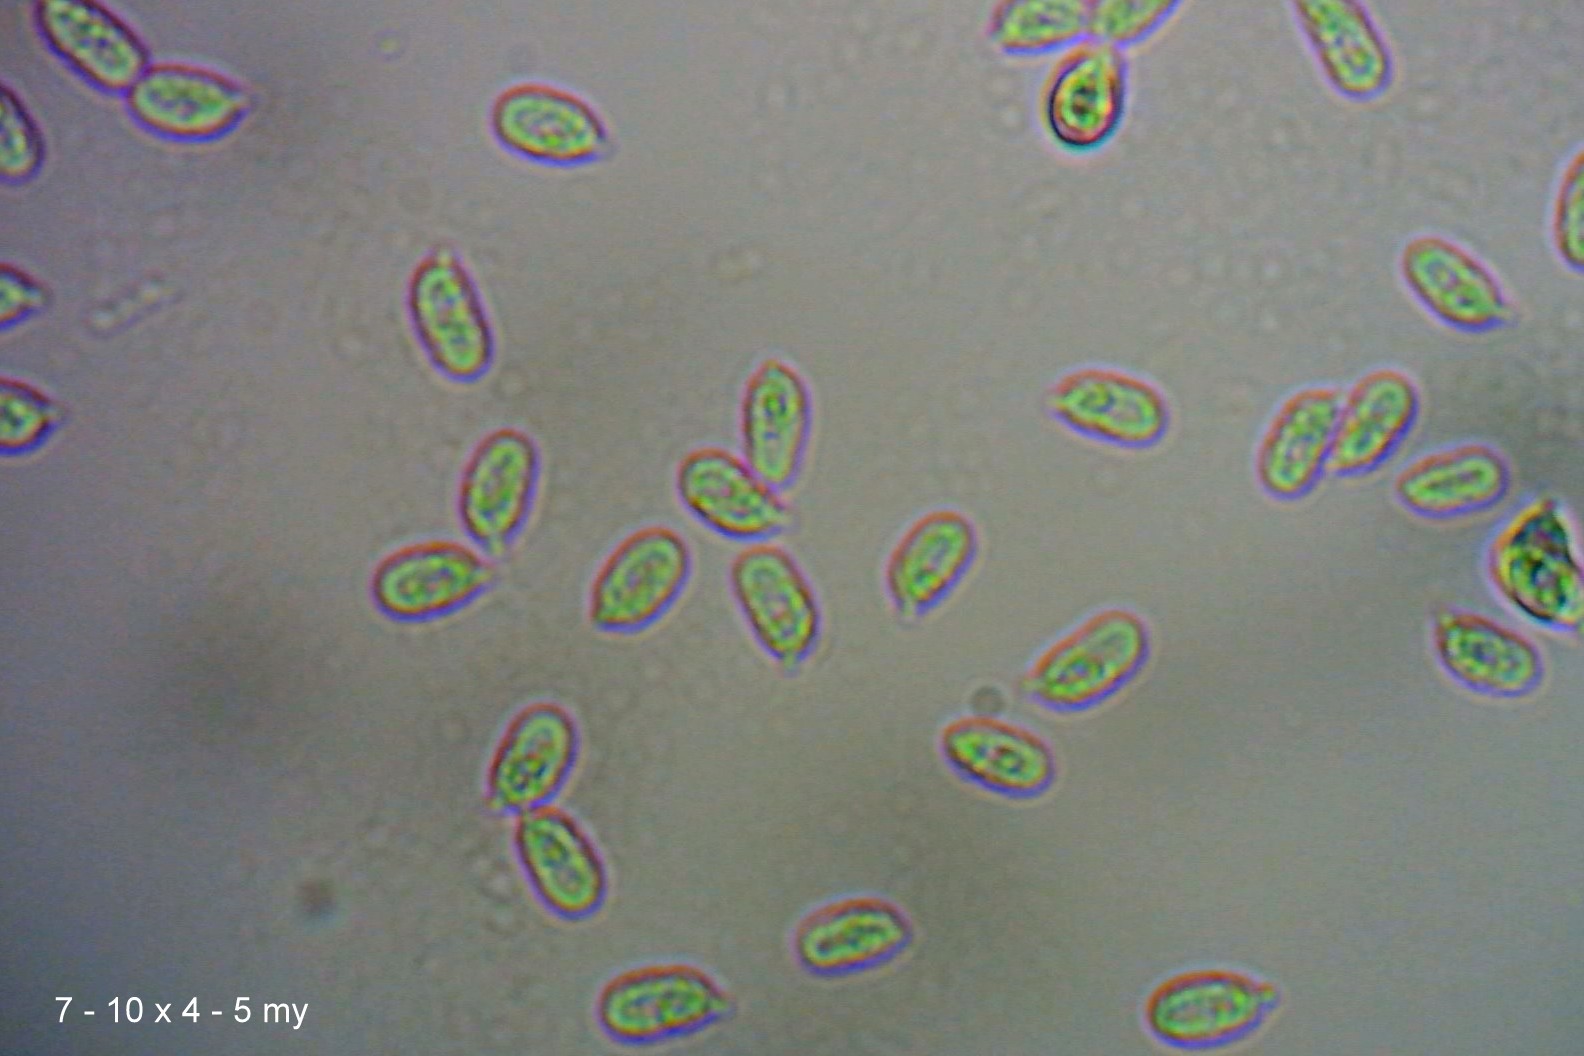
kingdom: Fungi
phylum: Basidiomycota
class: Agaricomycetes
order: Agaricales
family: Mycenaceae
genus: Atheniella
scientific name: Atheniella flavoalba
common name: gulhvid huesvamp
